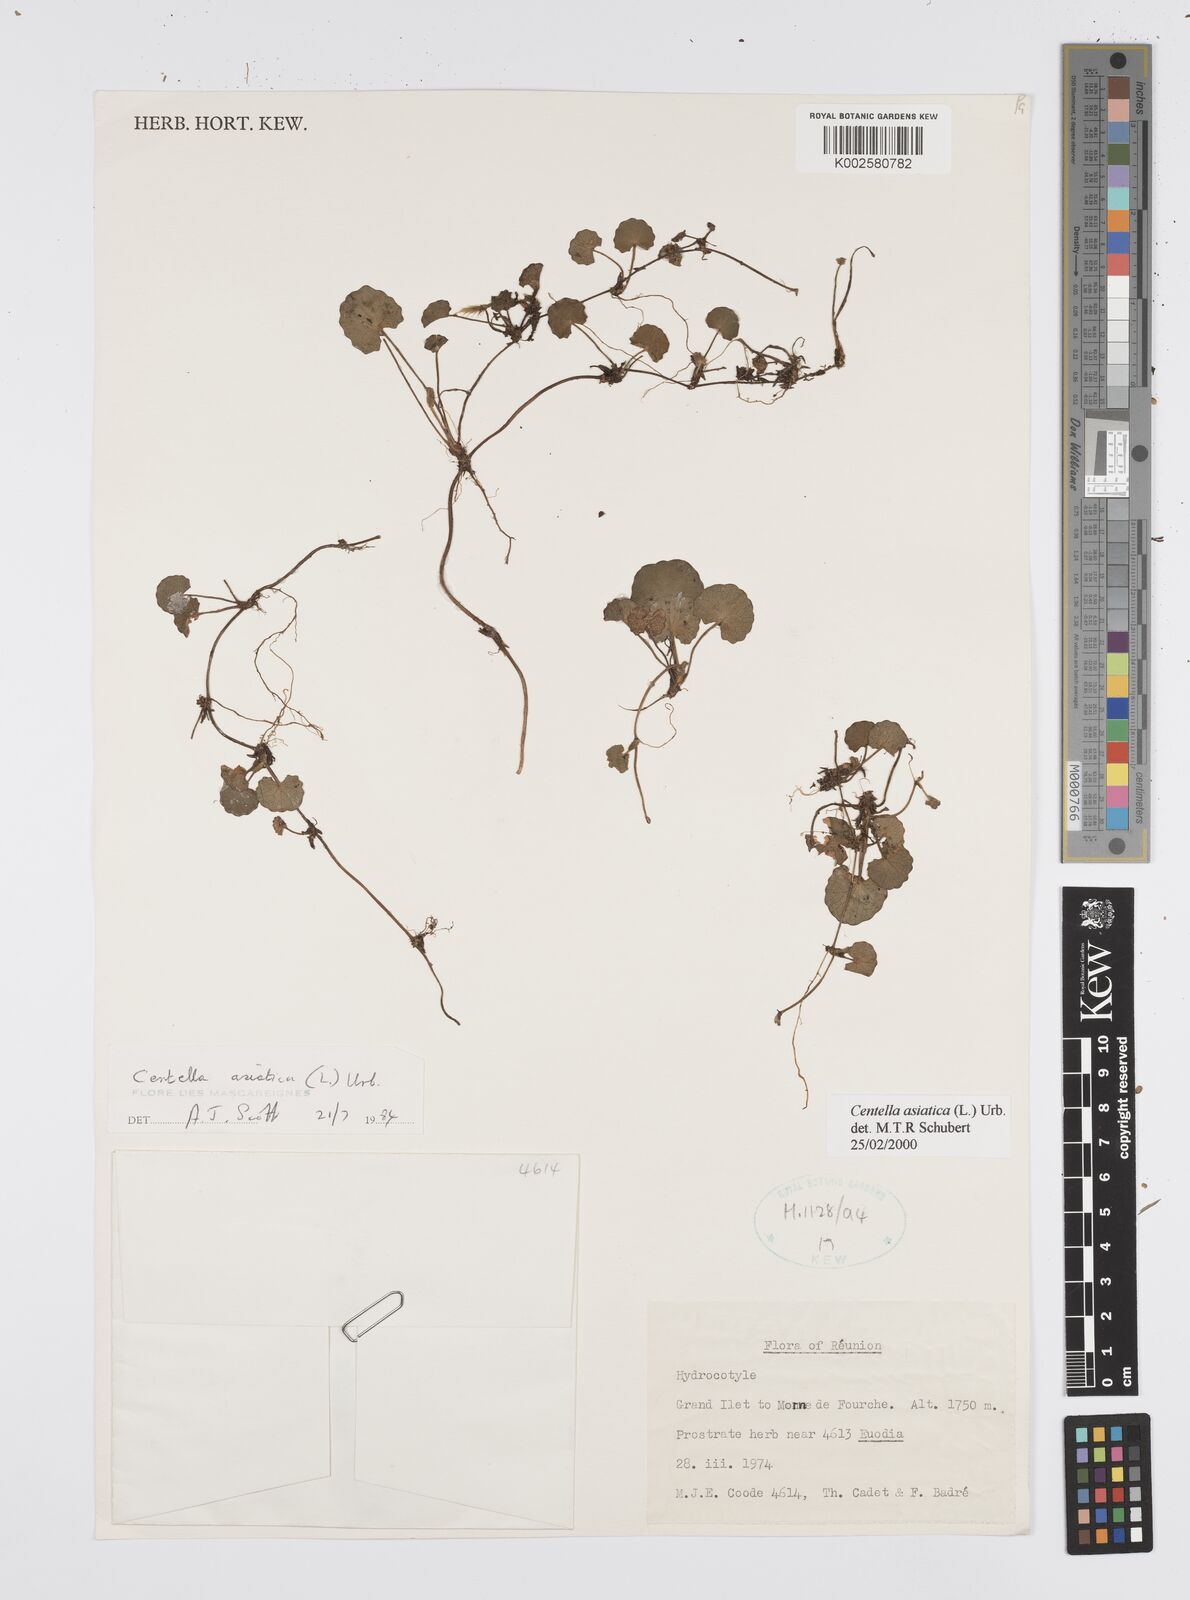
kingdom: Plantae
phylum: Tracheophyta
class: Magnoliopsida
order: Apiales
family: Apiaceae
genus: Centella
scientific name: Centella asiatica
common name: Spadeleaf
